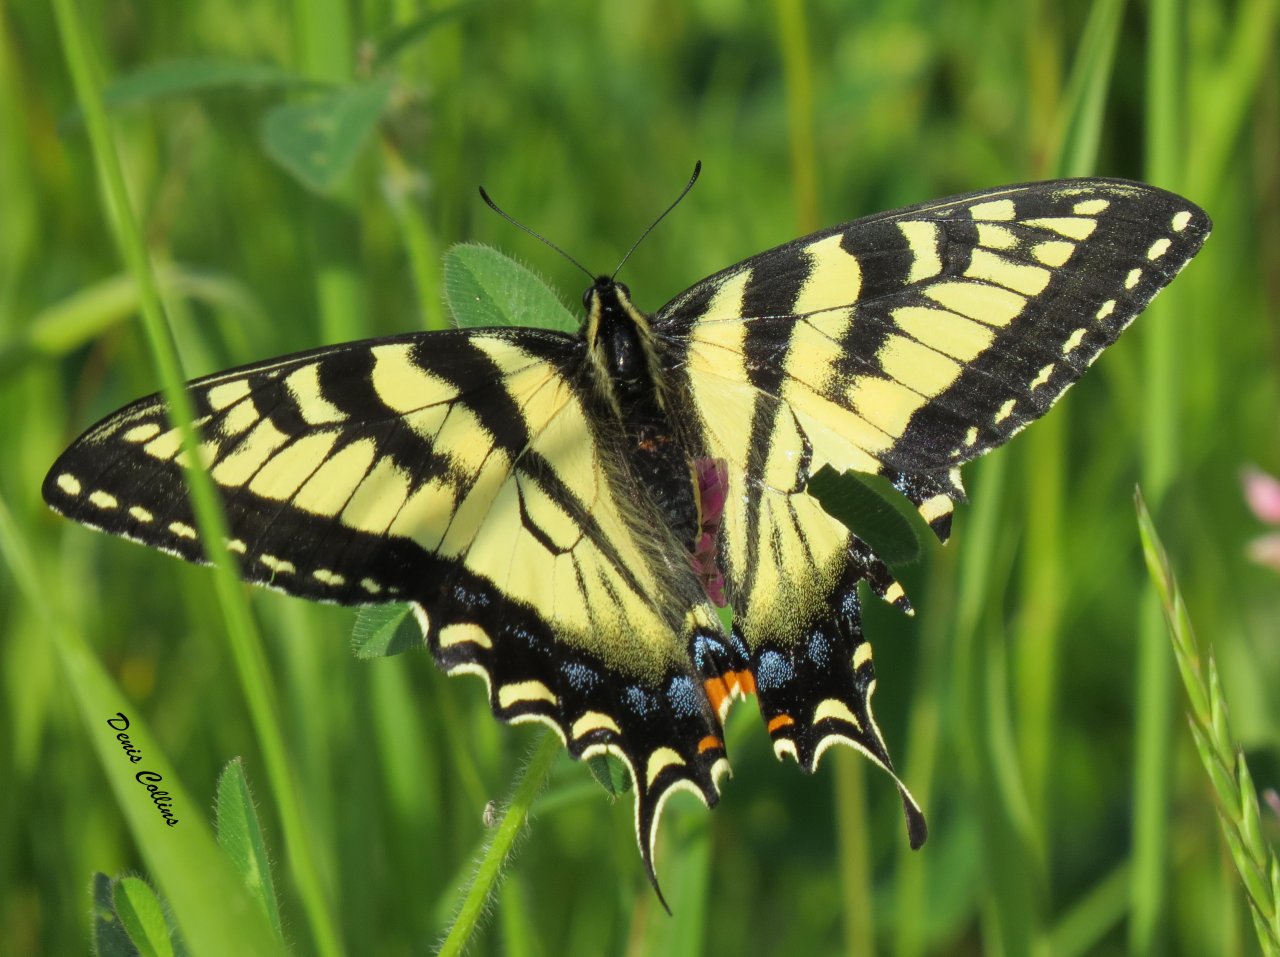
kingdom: Animalia
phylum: Arthropoda
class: Insecta
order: Lepidoptera
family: Papilionidae
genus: Pterourus
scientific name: Pterourus canadensis
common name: Canadian Tiger Swallowtail
